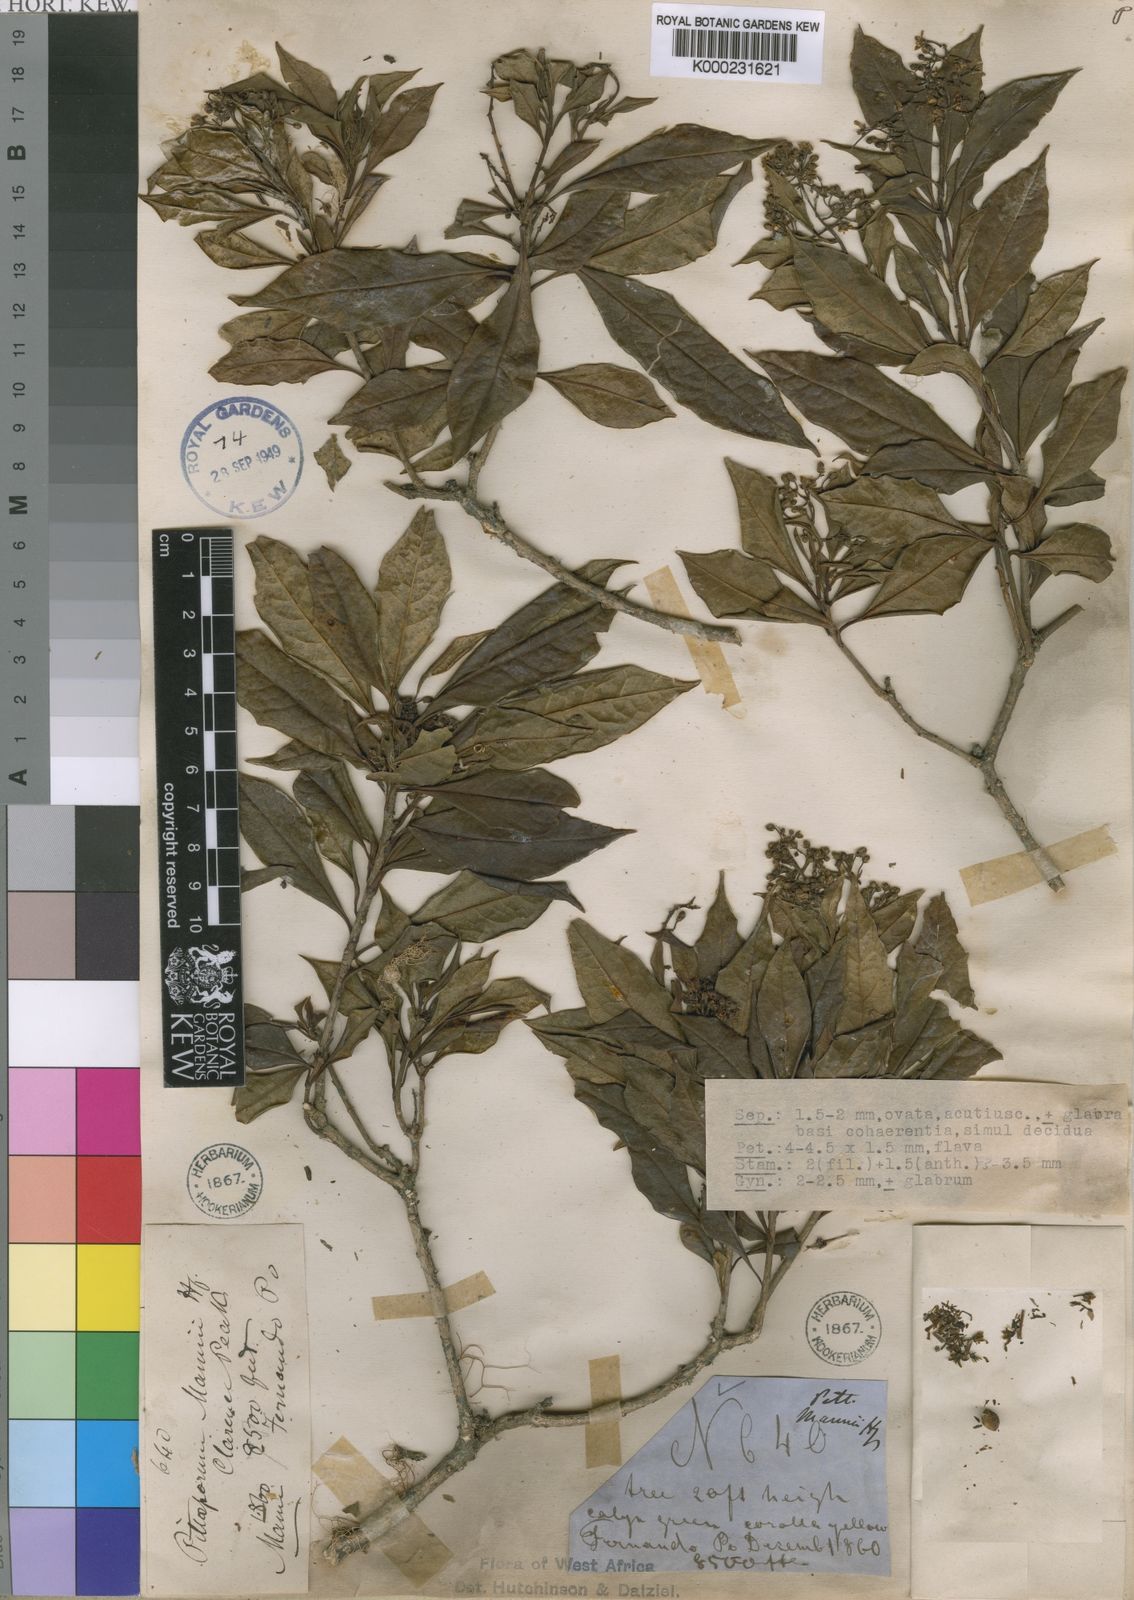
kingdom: Plantae
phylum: Tracheophyta
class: Magnoliopsida
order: Apiales
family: Pittosporaceae
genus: Pittosporum
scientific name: Pittosporum viridiflorum
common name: Cape cheesewood
